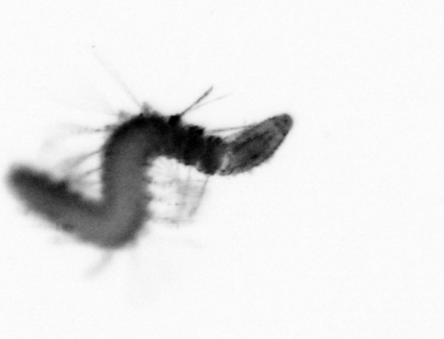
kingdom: Animalia
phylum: Annelida
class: Polychaeta
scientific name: Polychaeta
